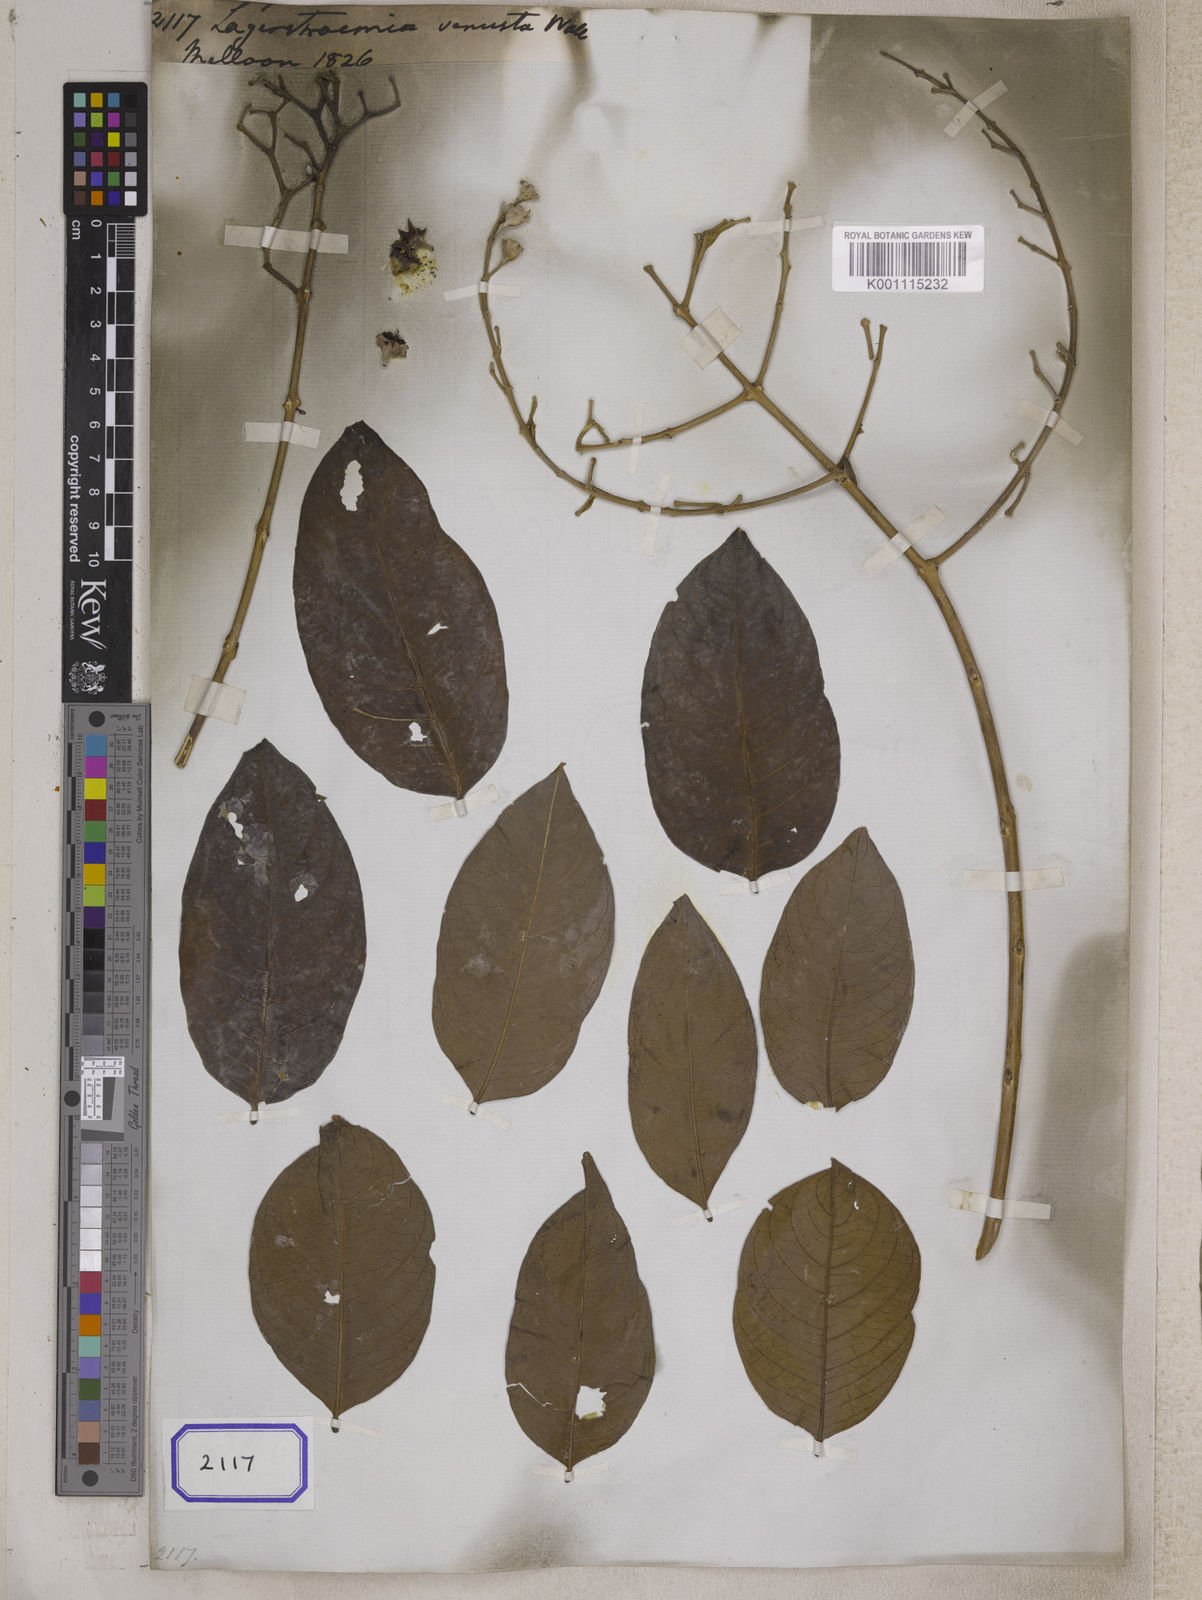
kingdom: Plantae
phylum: Tracheophyta
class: Magnoliopsida
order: Myrtales
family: Lythraceae
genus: Lagerstroemia
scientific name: Lagerstroemia
